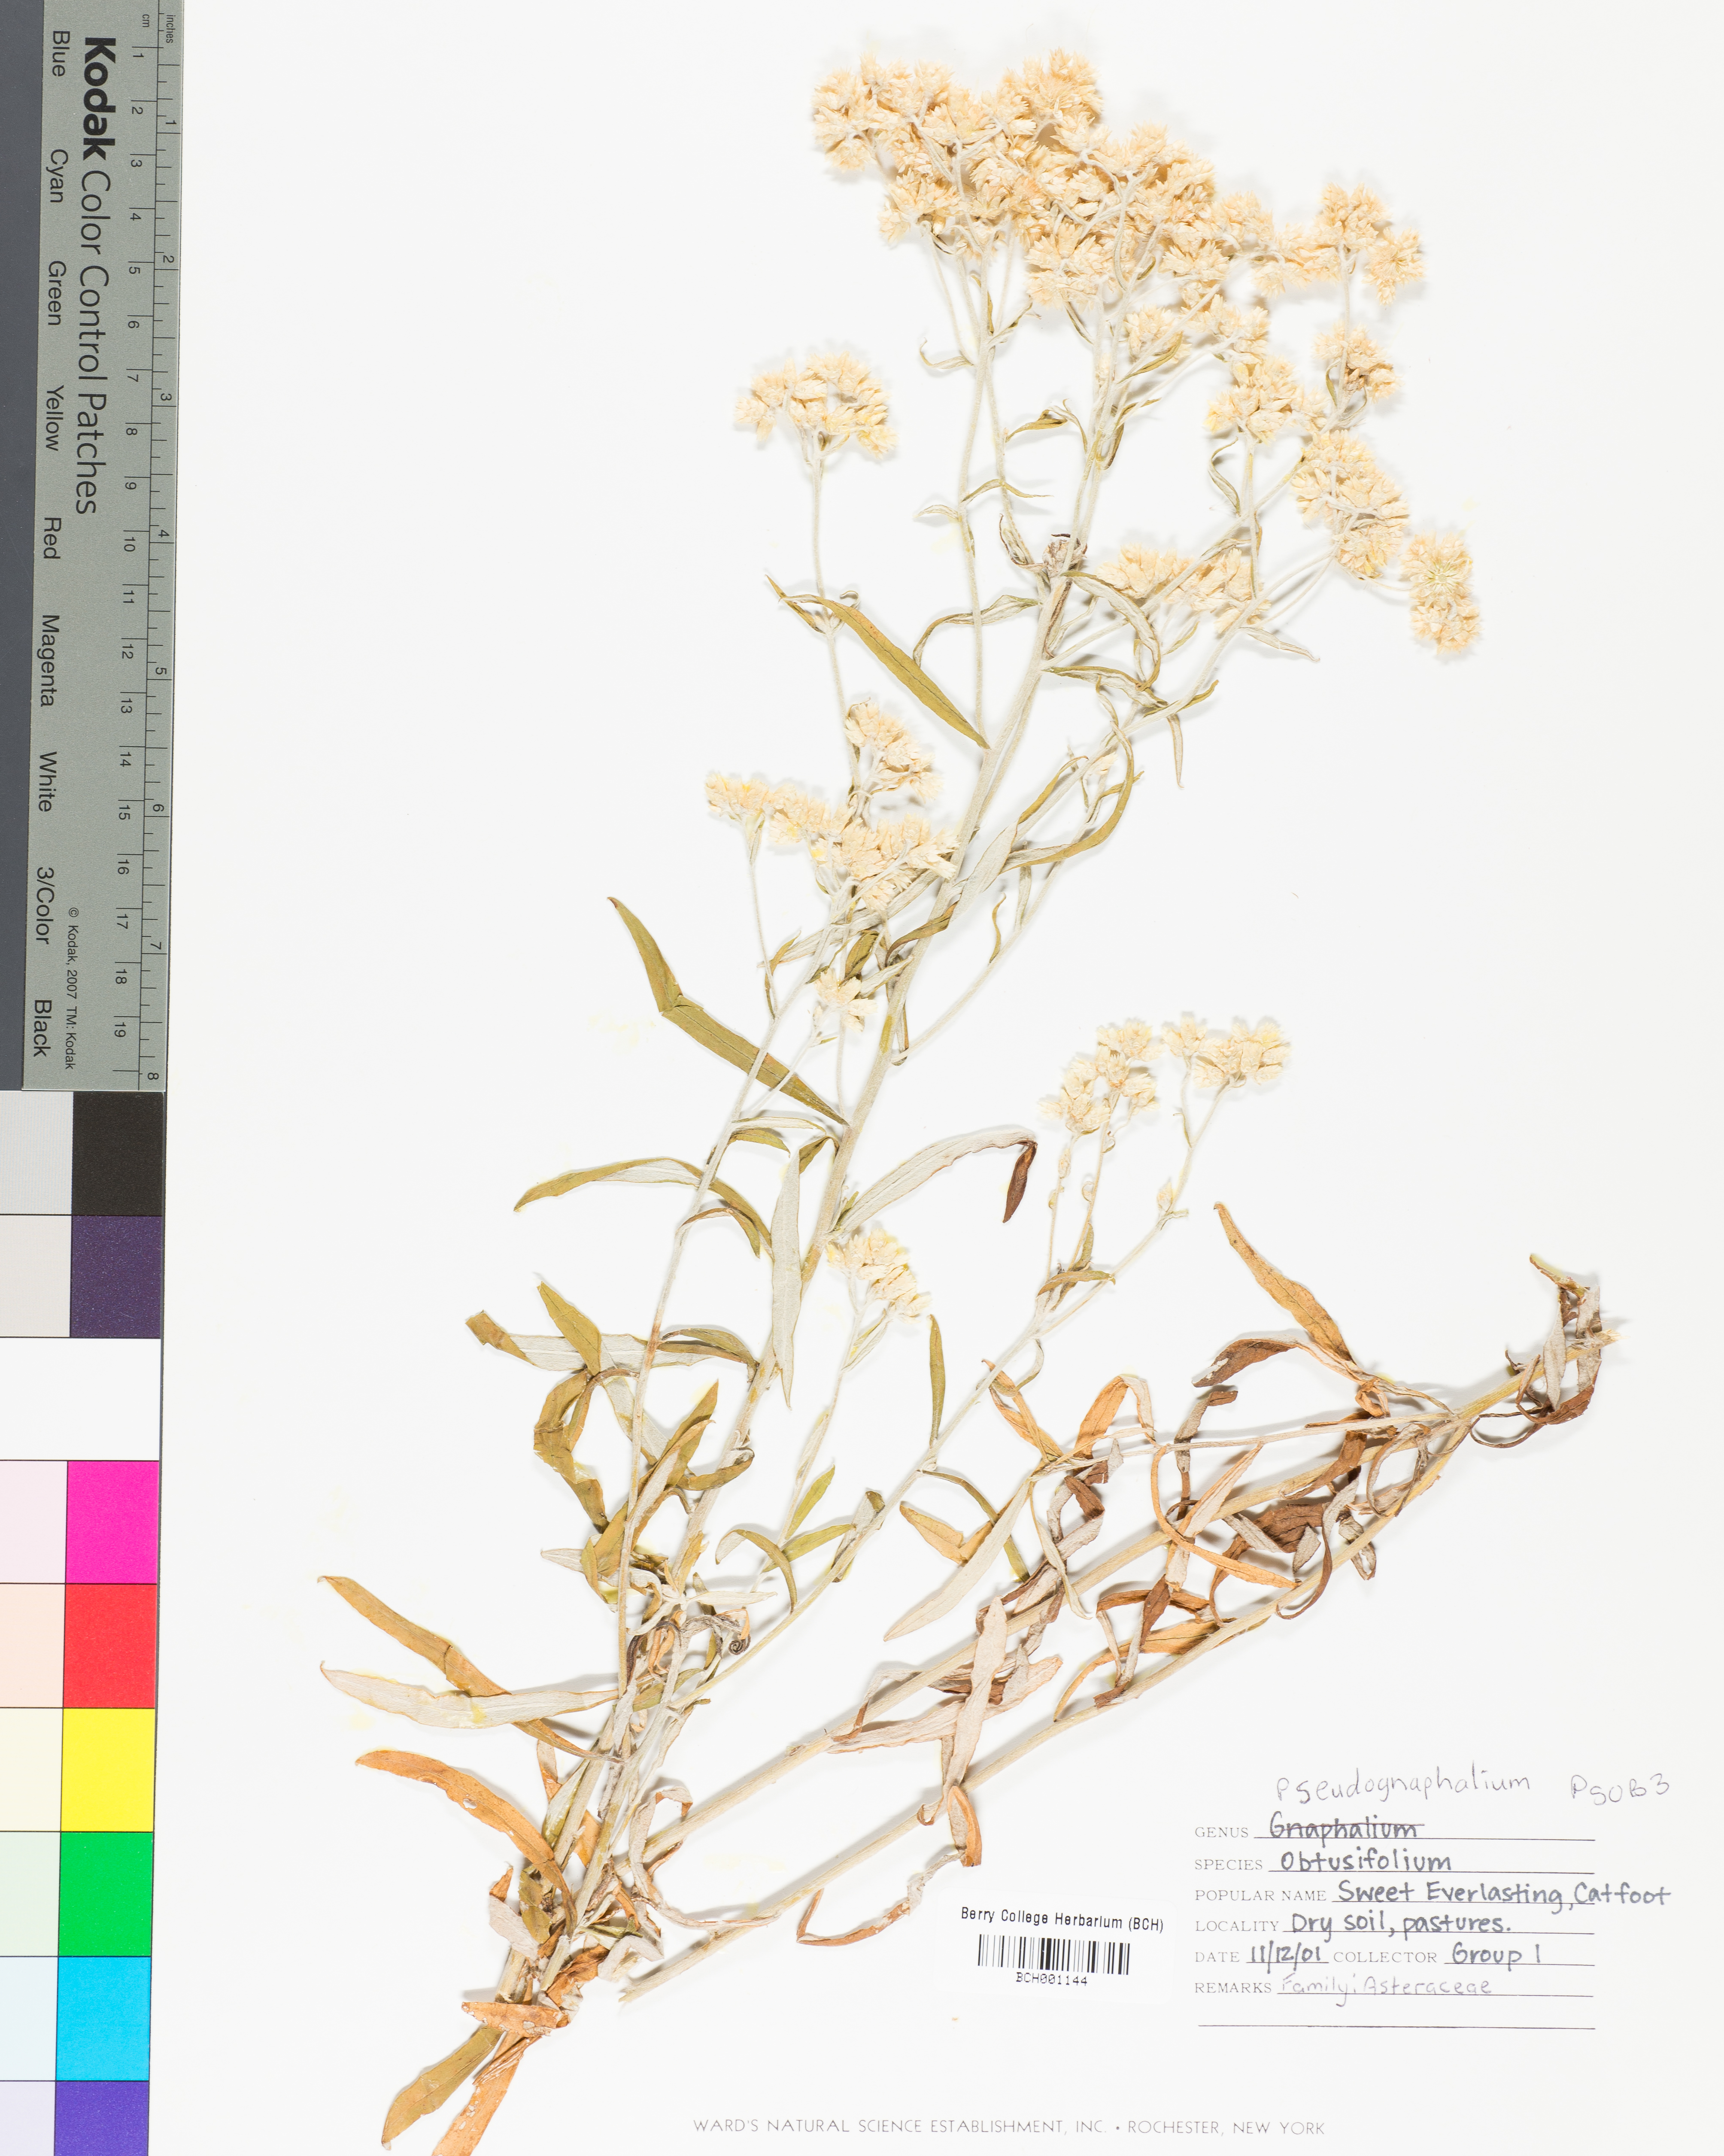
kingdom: Plantae
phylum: Tracheophyta
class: Magnoliopsida
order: Asterales
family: Asteraceae
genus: Pseudognaphalium
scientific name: Pseudognaphalium obtusifolium
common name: Eastern rabbit-tobacco
